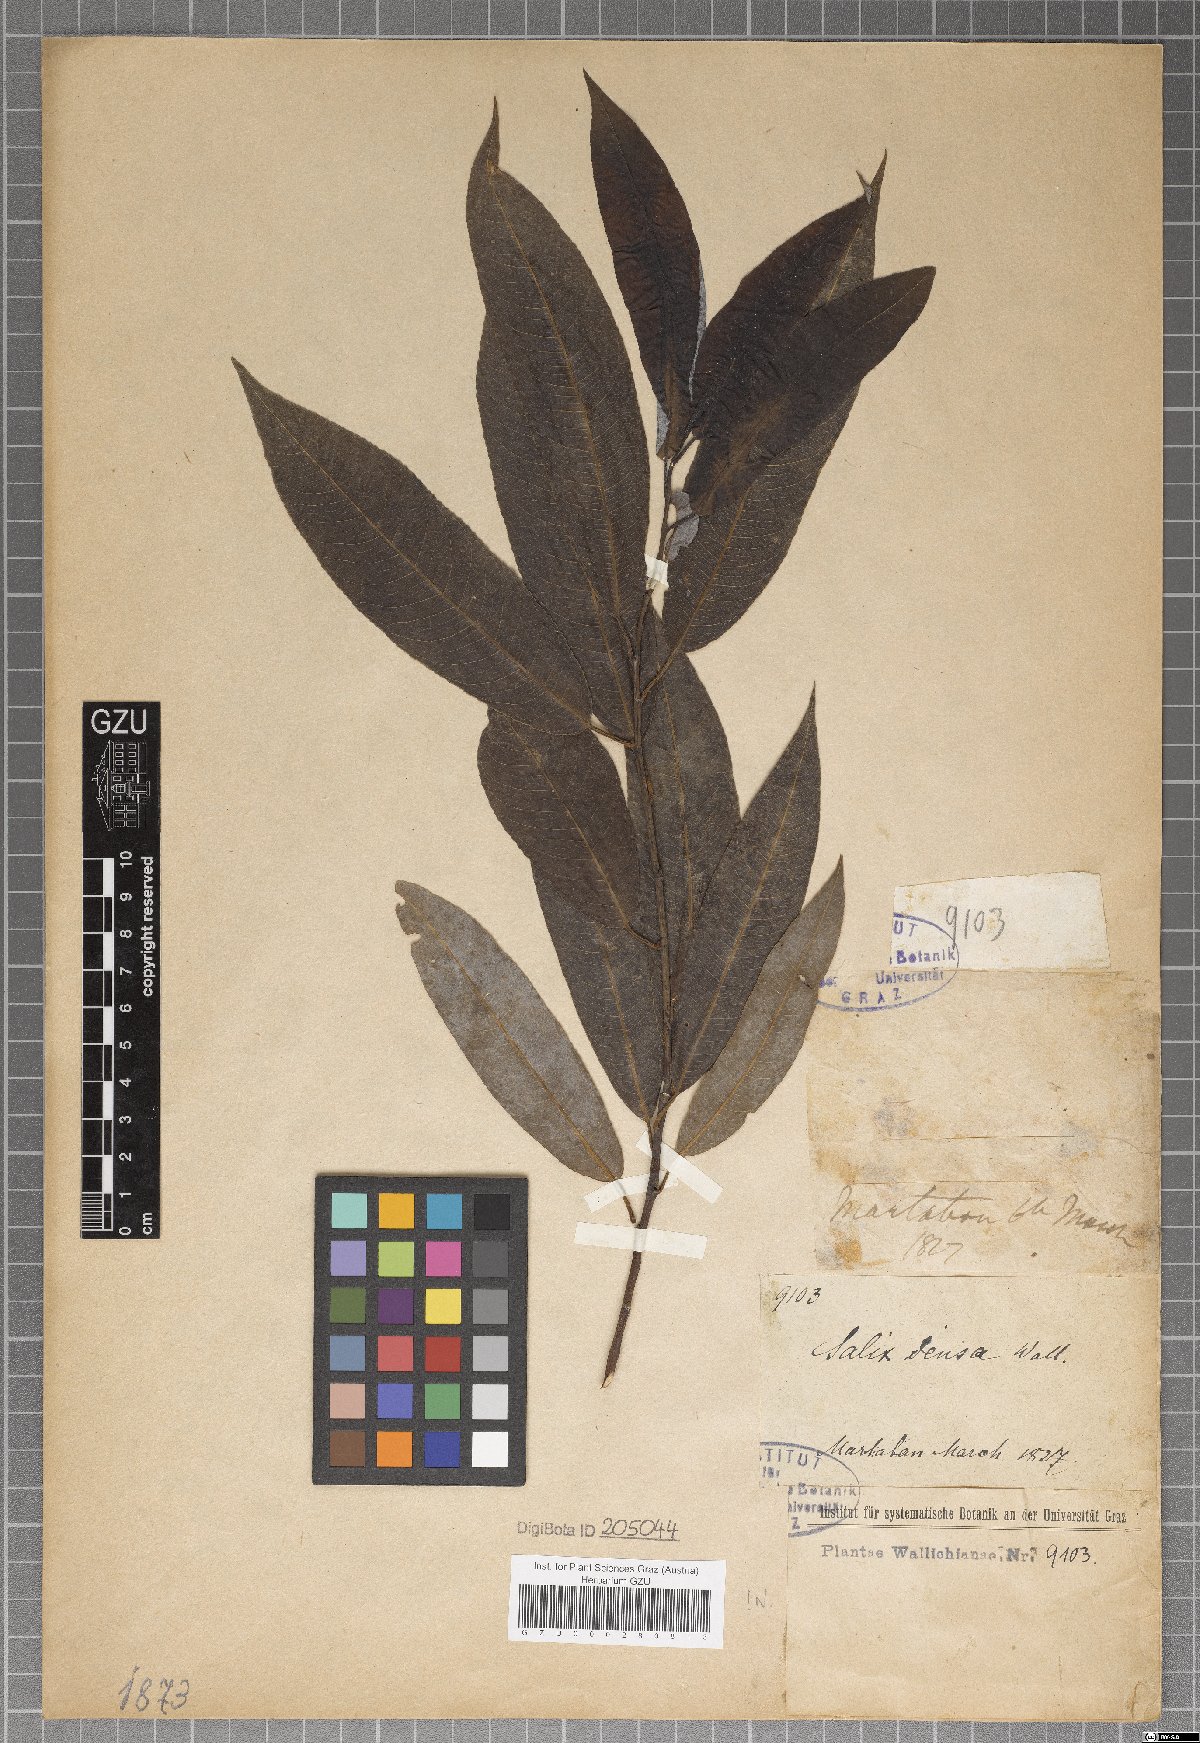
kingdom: Plantae
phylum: Tracheophyta
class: Magnoliopsida
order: Malpighiales
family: Salicaceae
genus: Salix
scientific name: Salix tetrasperma
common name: Indian willow
